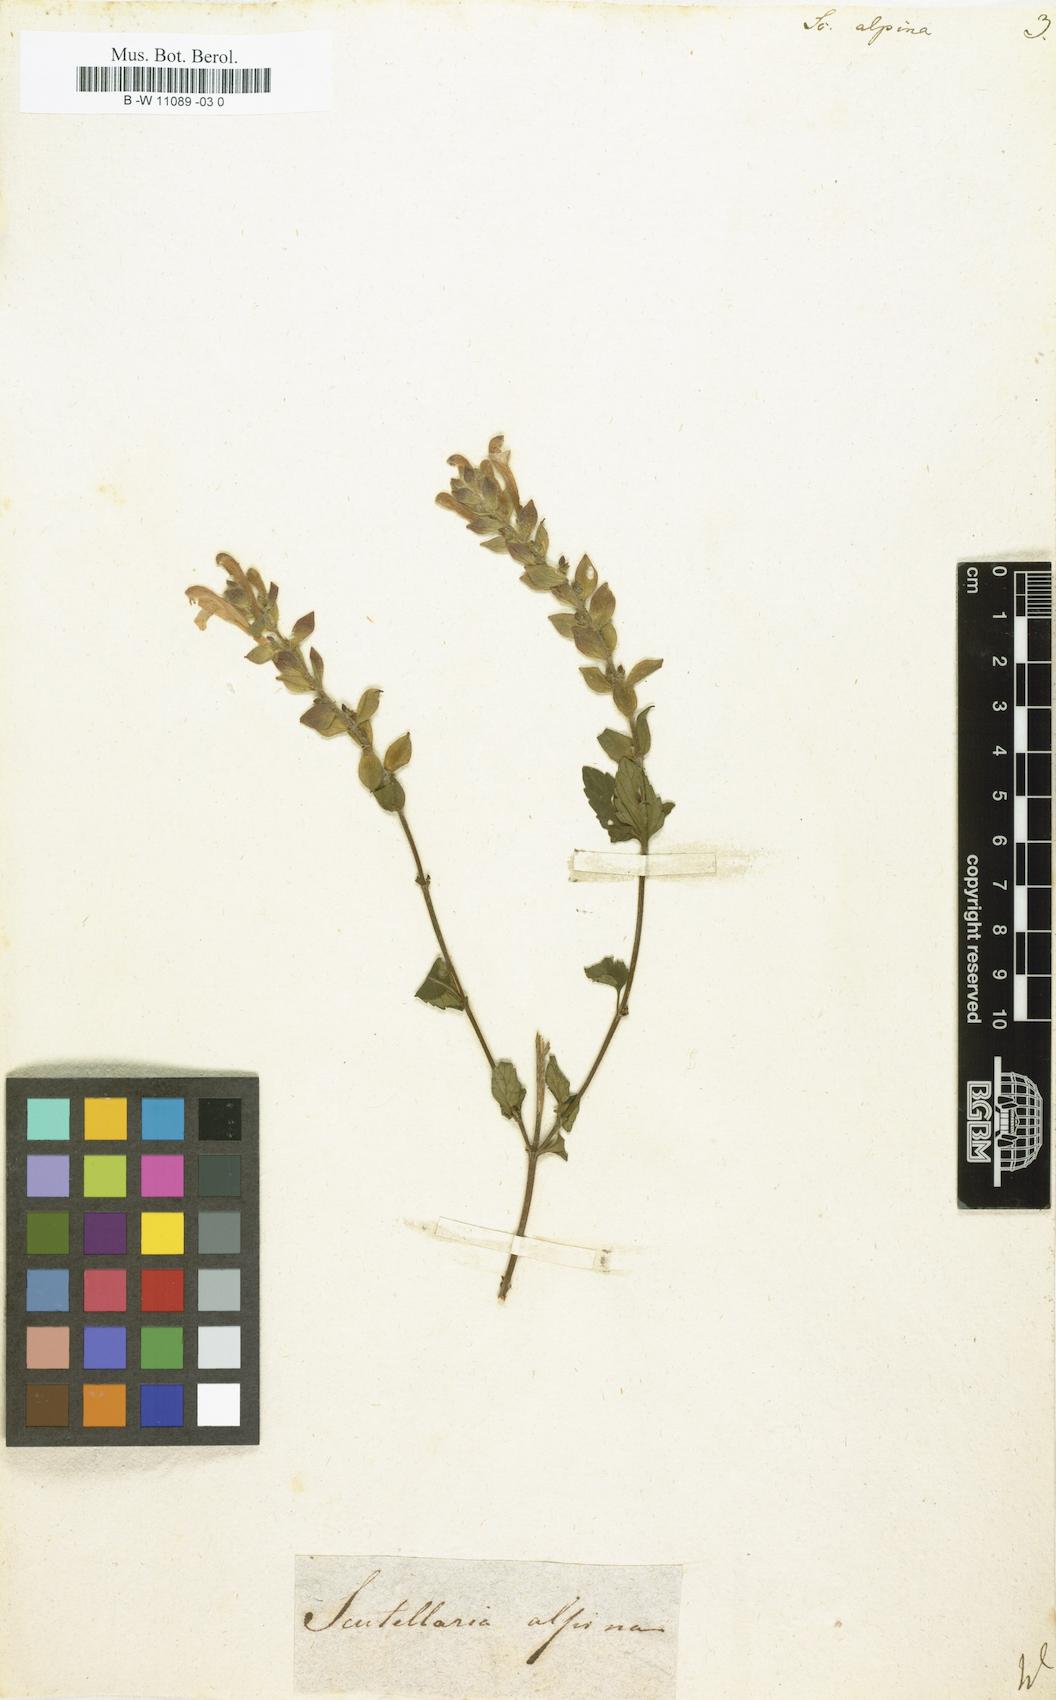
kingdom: Plantae
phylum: Tracheophyta
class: Magnoliopsida
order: Lamiales
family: Lamiaceae
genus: Scutellaria
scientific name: Scutellaria alpina
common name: Alpine scullcap
